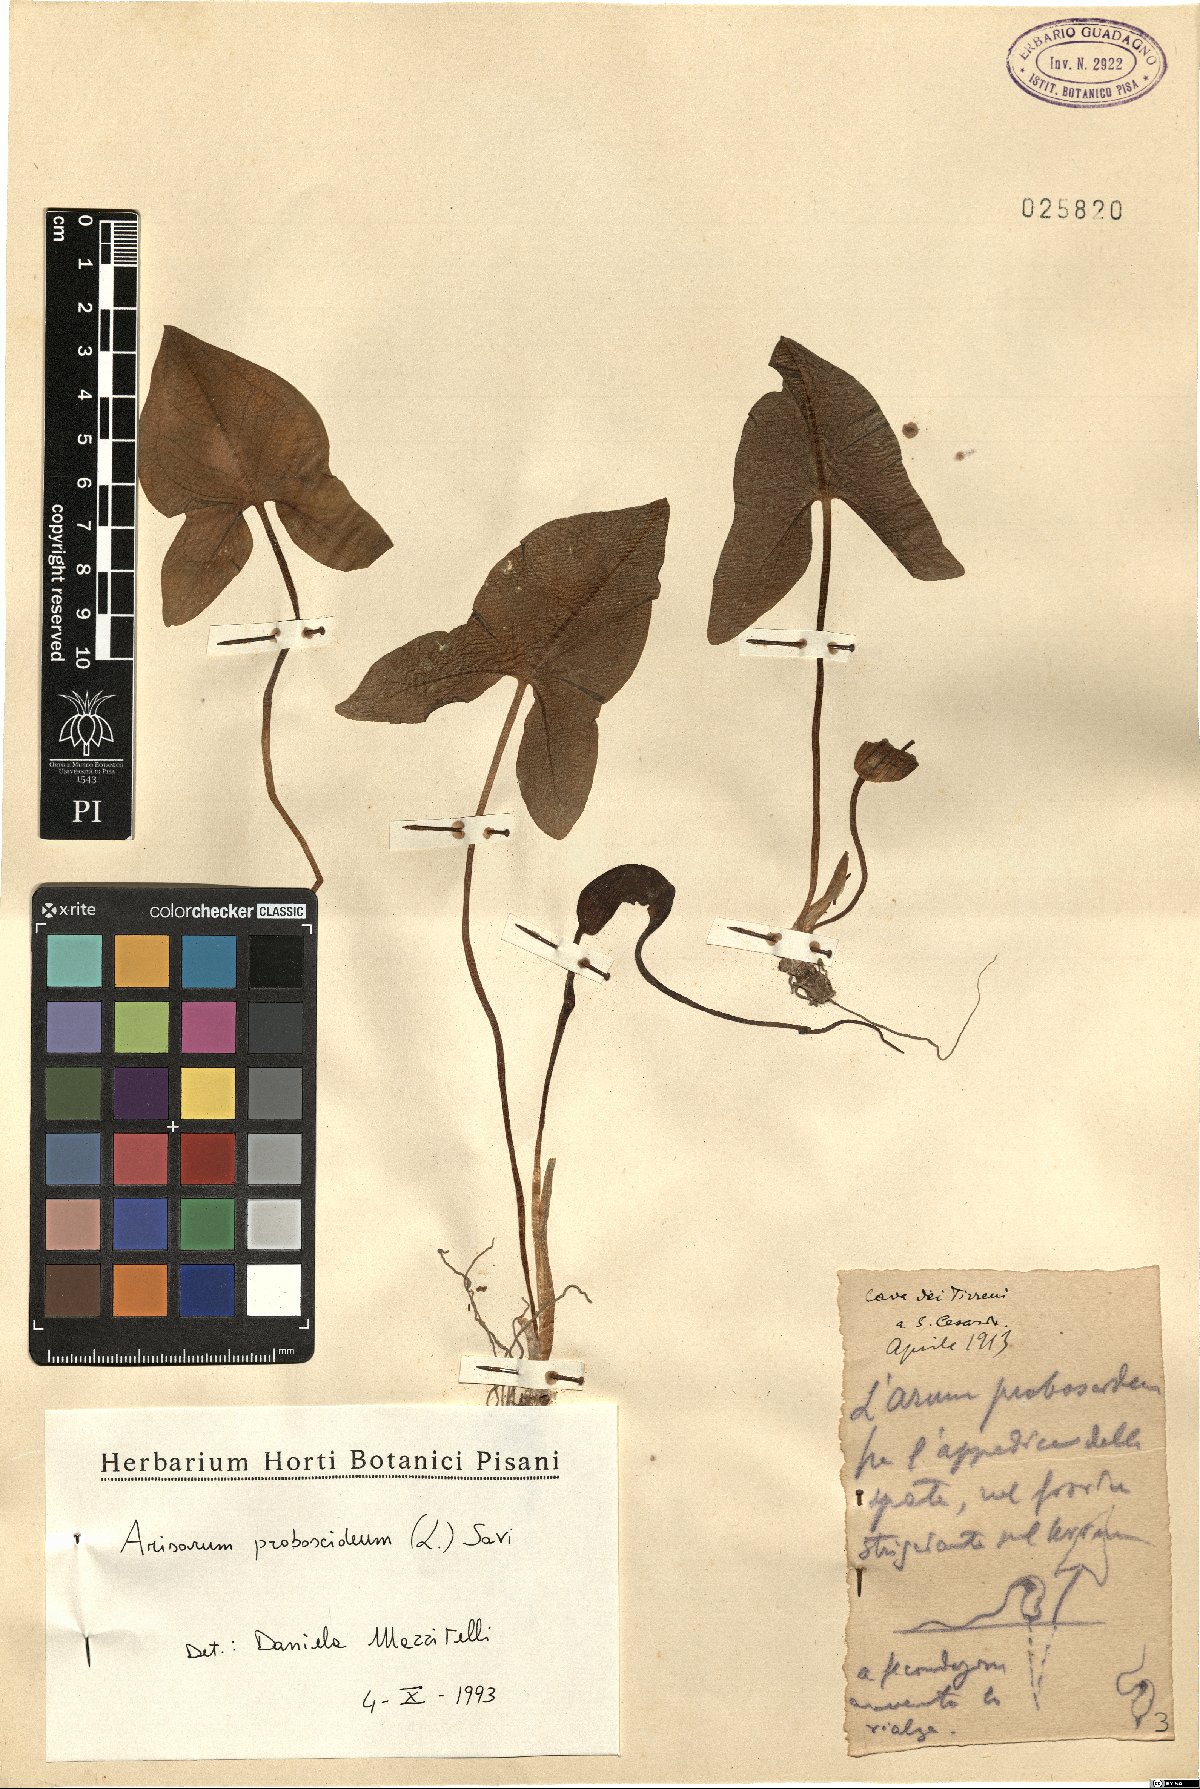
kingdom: Plantae
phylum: Tracheophyta
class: Liliopsida
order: Alismatales
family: Araceae
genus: Arisarum
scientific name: Arisarum proboscideum
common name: Mousetailplant
